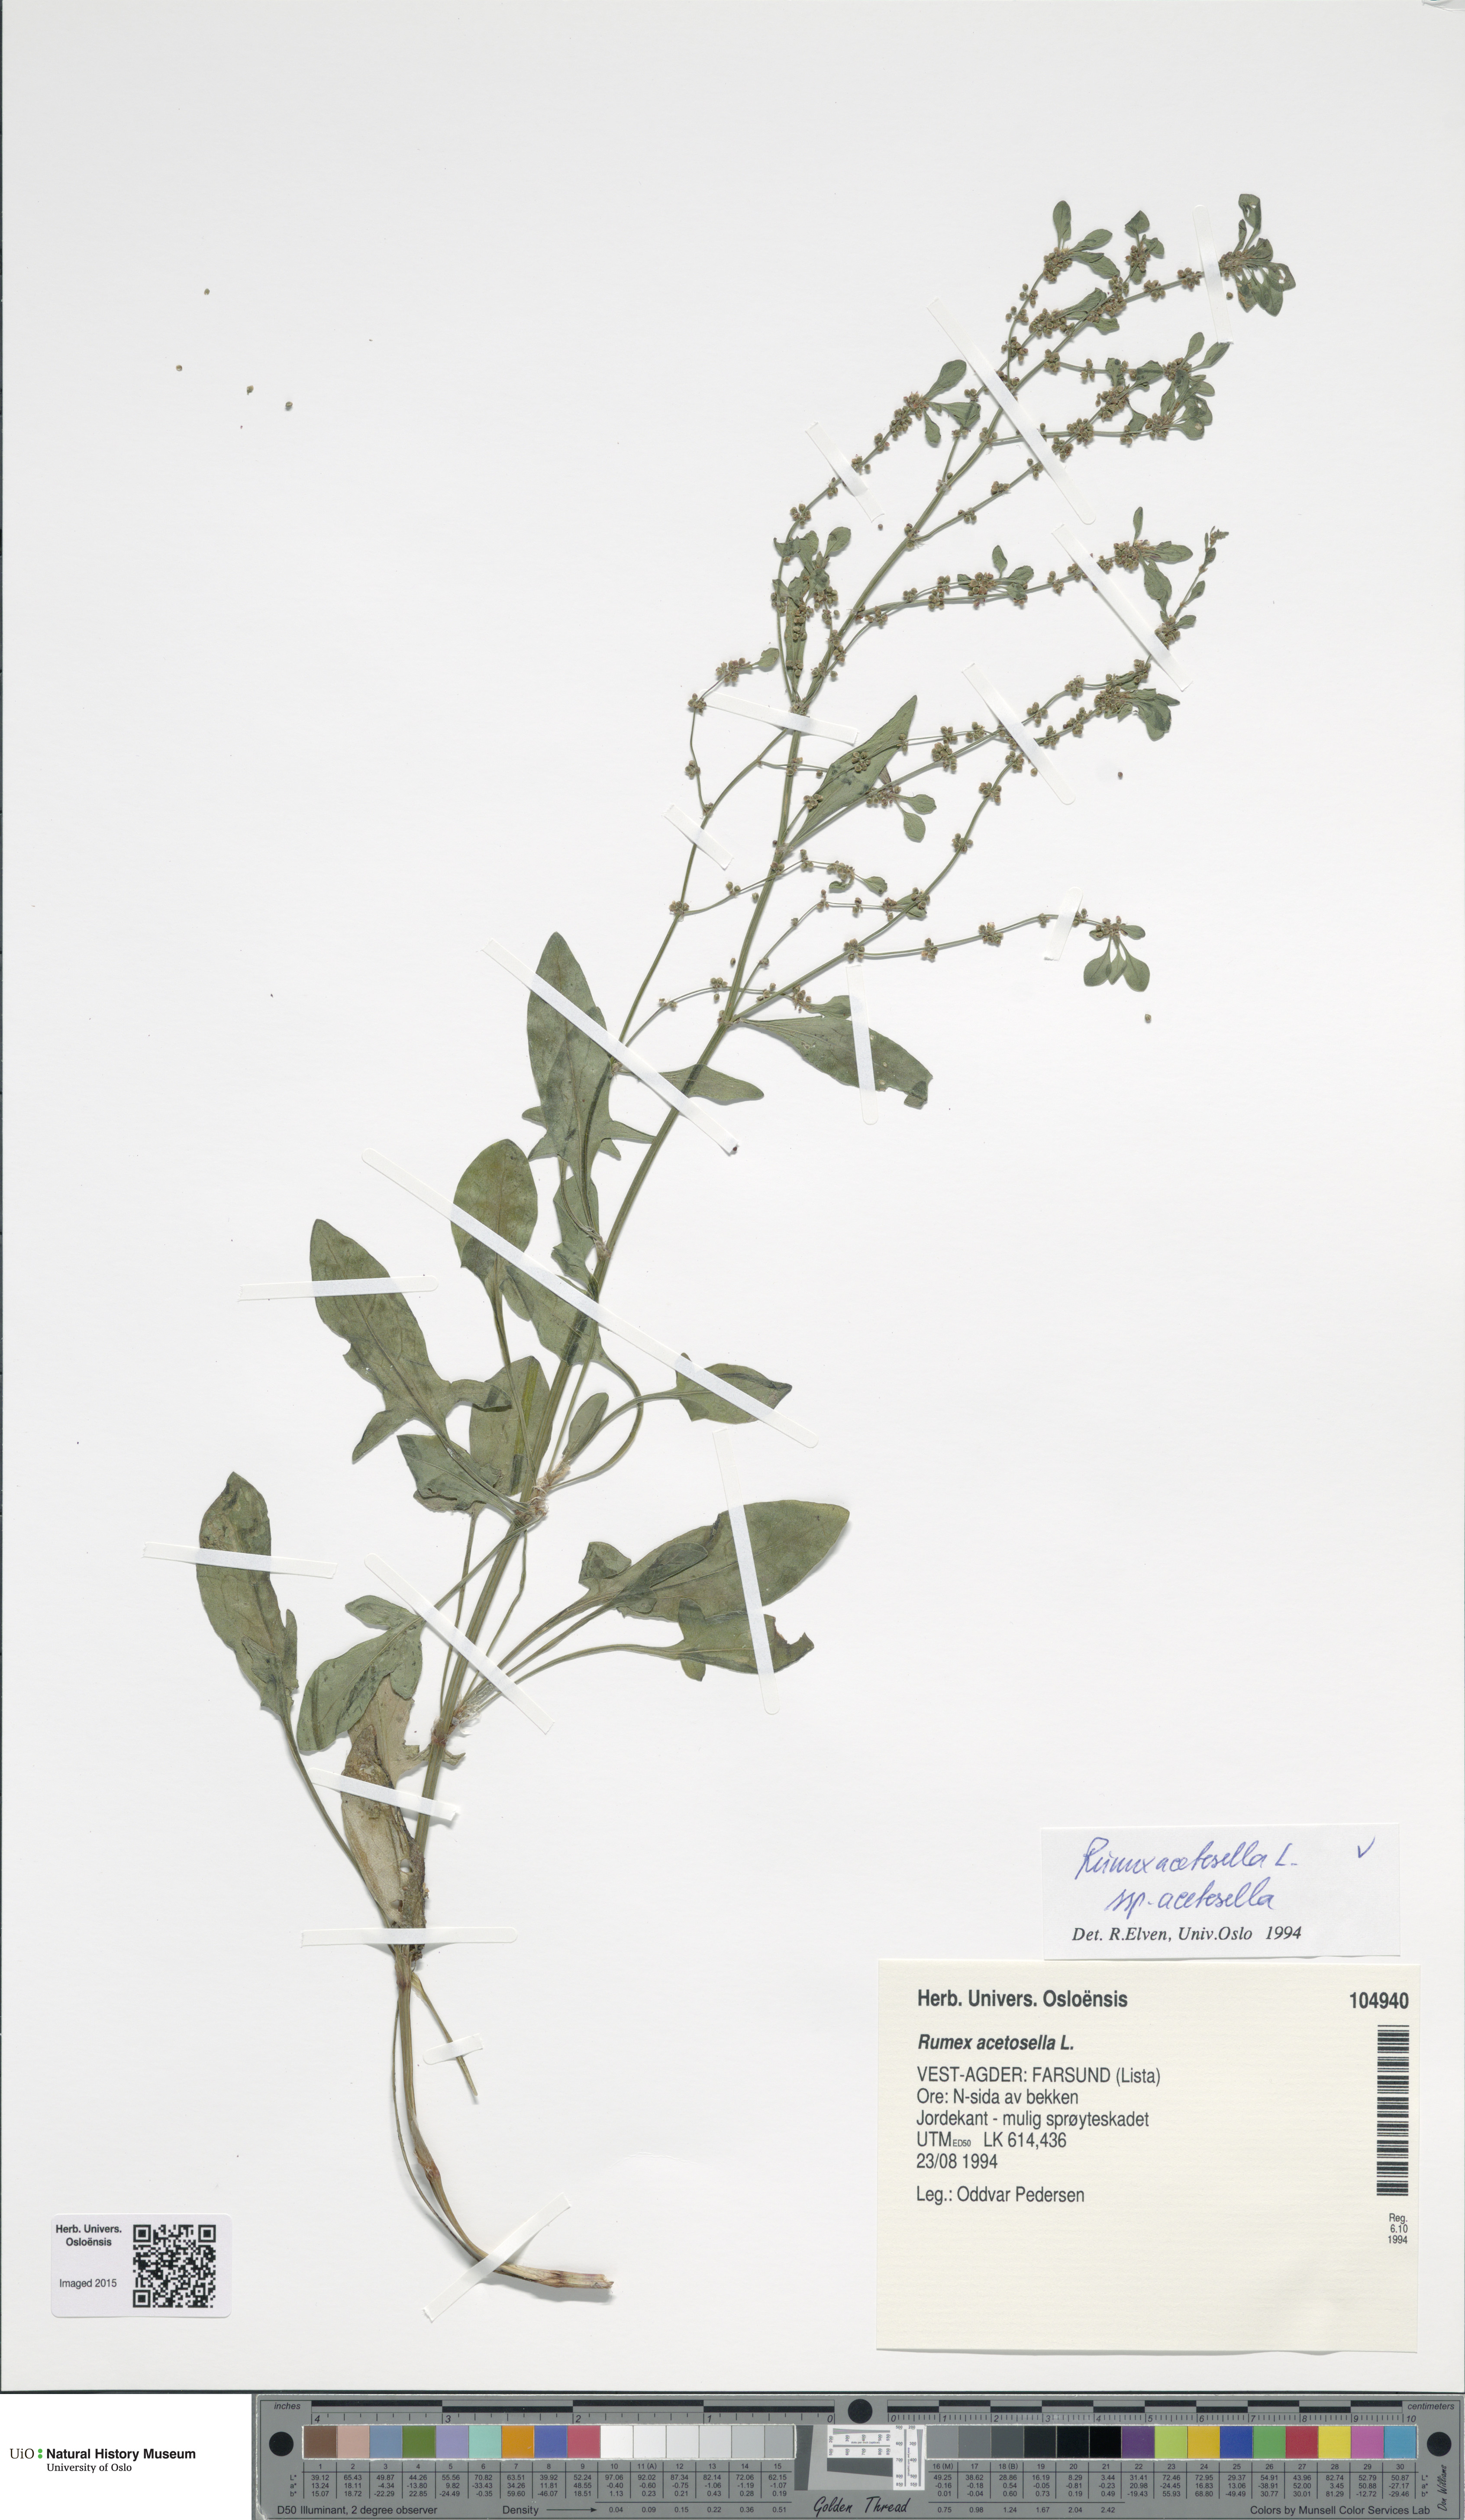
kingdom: Plantae
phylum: Tracheophyta
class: Magnoliopsida
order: Caryophyllales
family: Polygonaceae
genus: Rumex
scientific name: Rumex acetosella
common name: Common sheep sorrel
